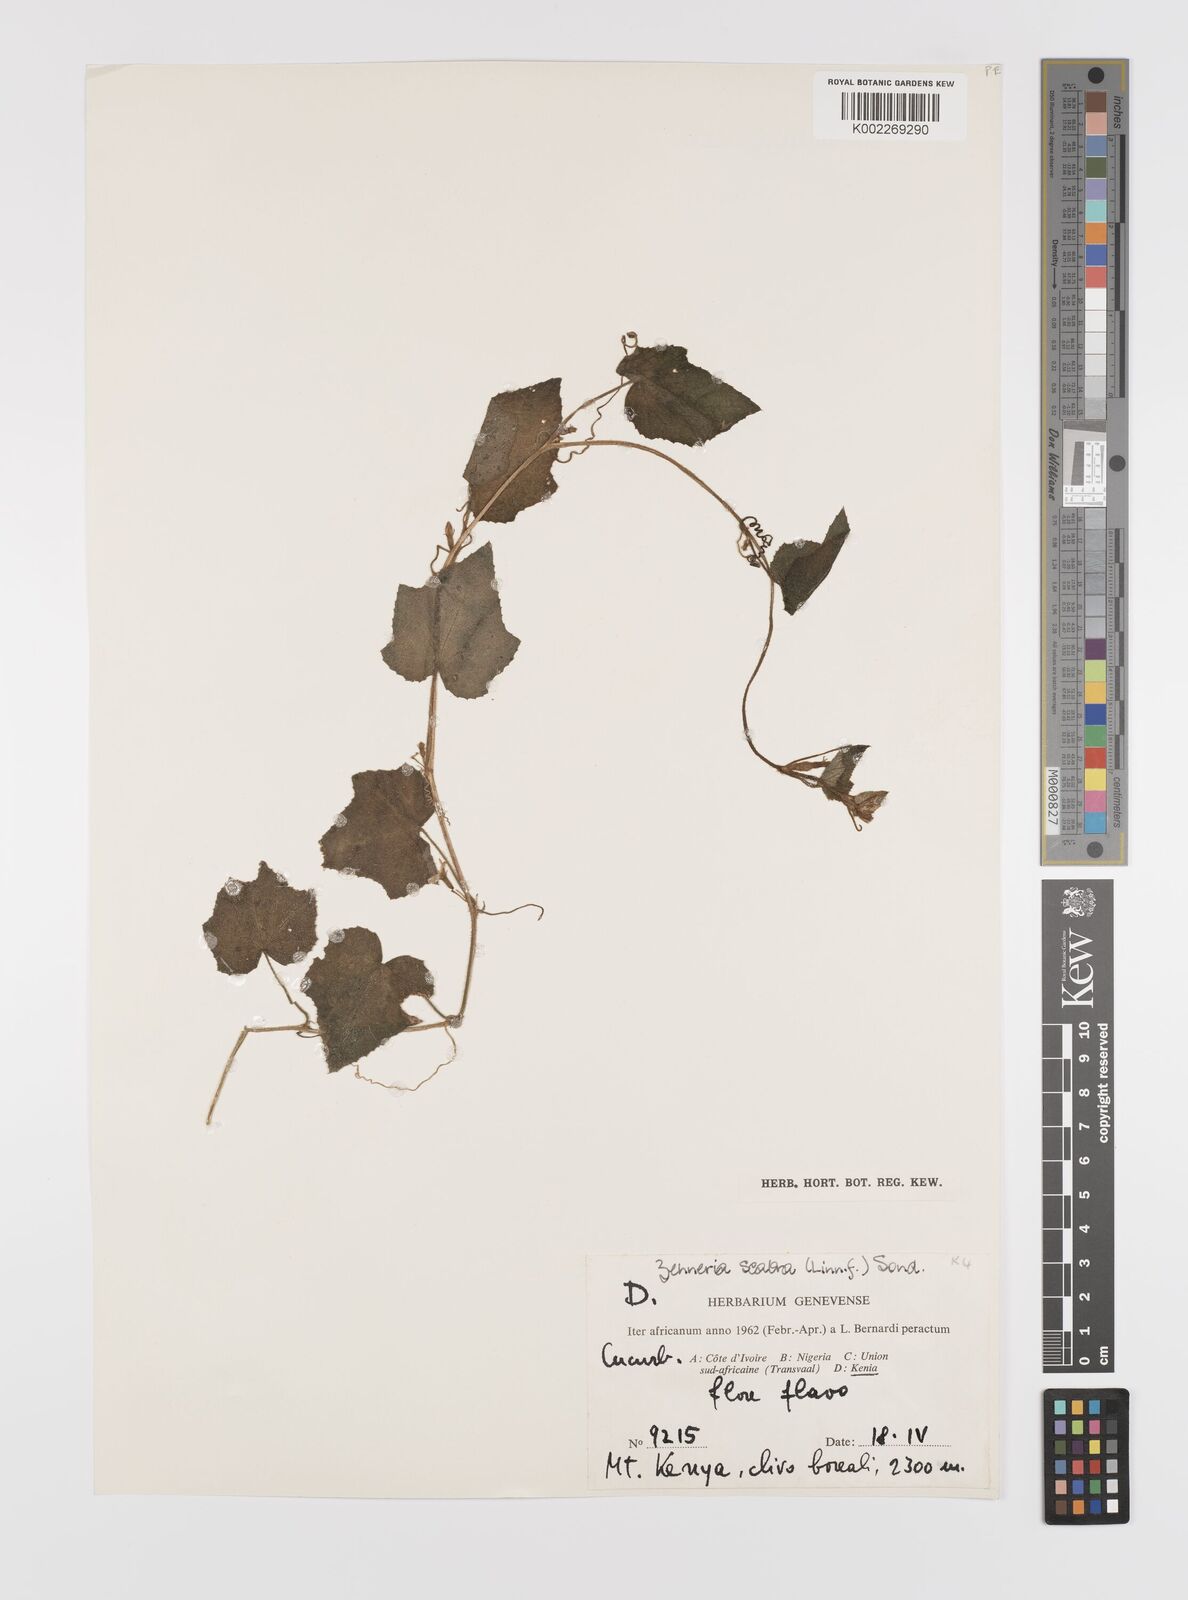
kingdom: Plantae
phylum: Tracheophyta
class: Magnoliopsida
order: Cucurbitales
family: Cucurbitaceae
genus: Cucumis
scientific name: Cucumis oreosyce
